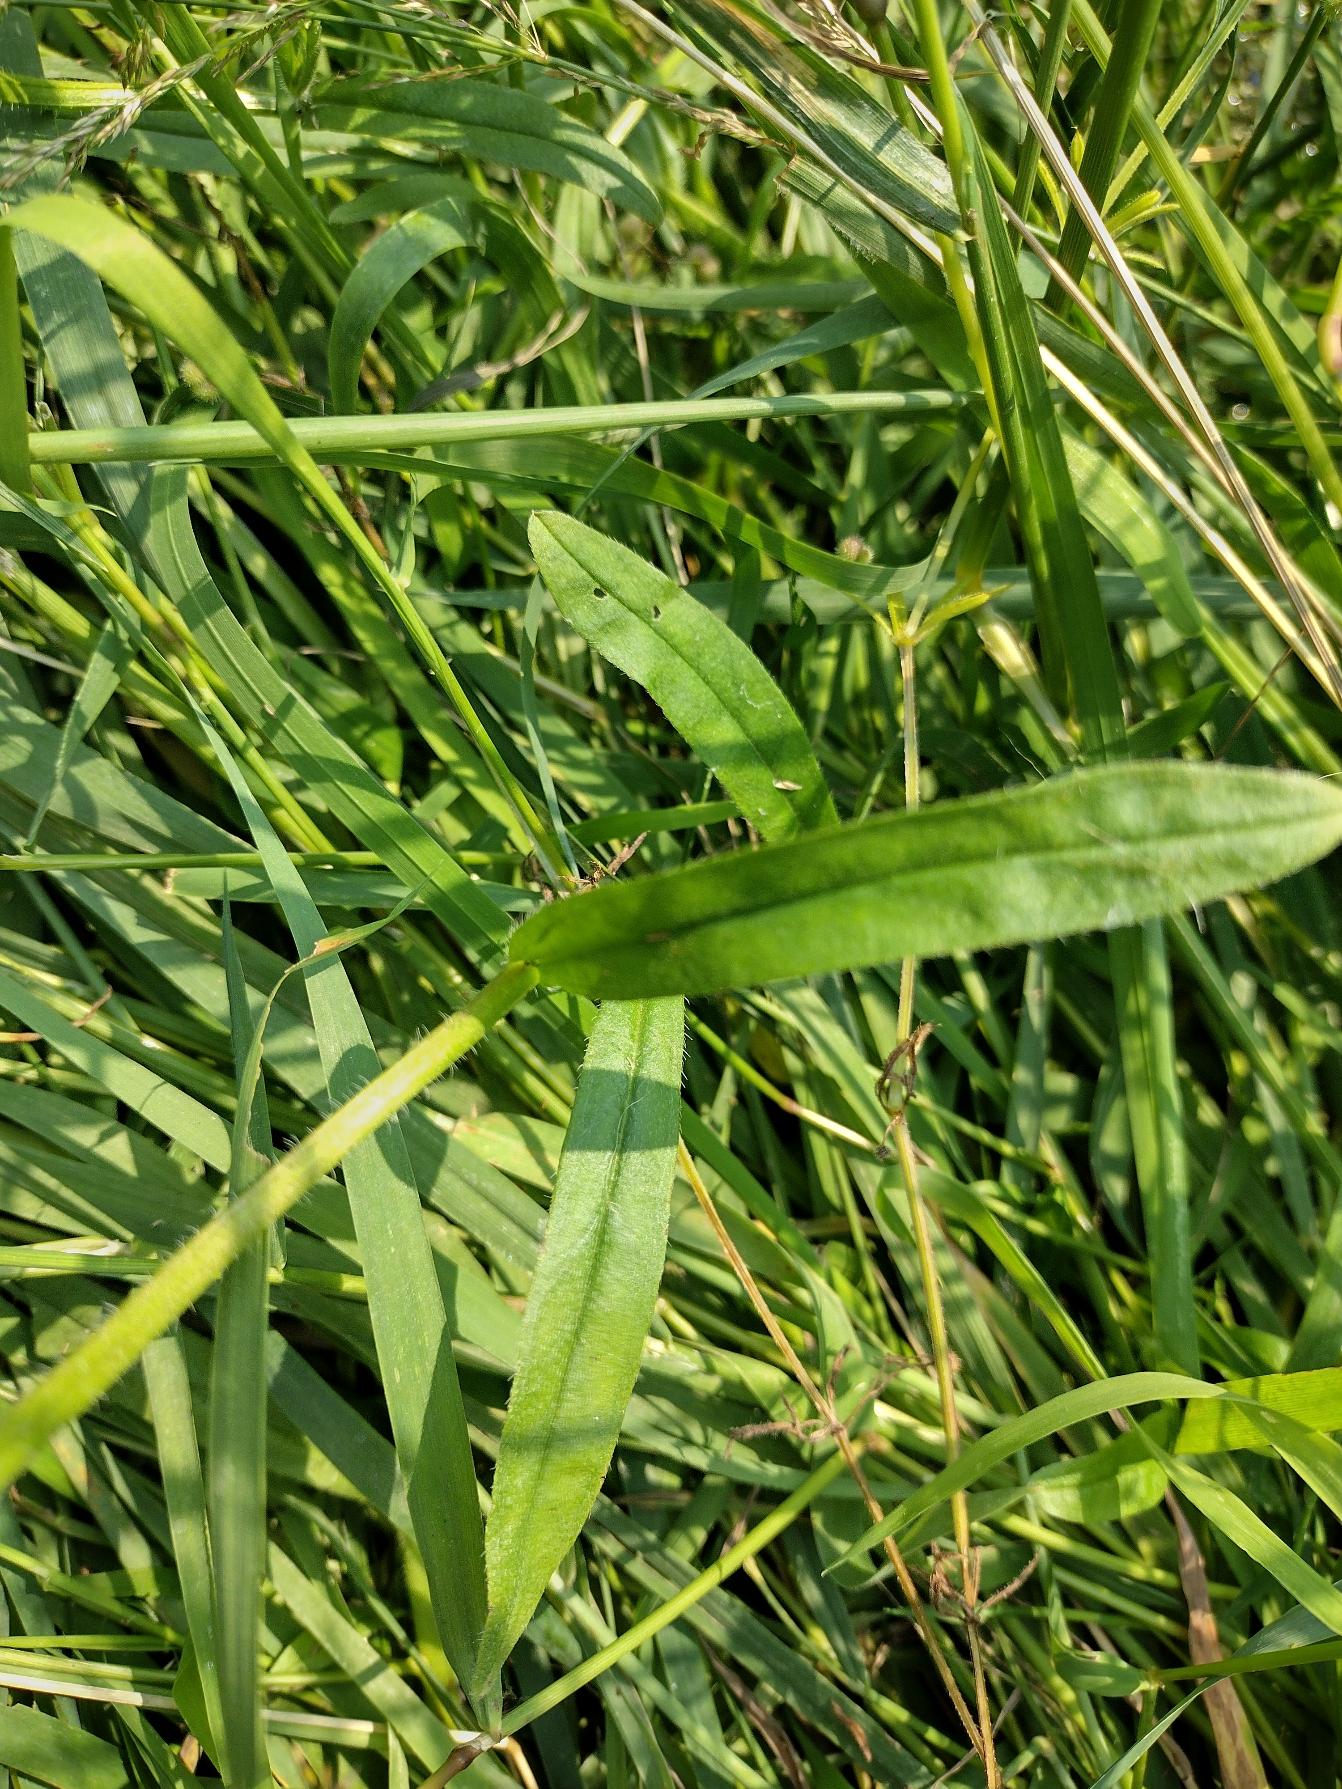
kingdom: Plantae
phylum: Tracheophyta
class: Magnoliopsida
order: Boraginales
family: Boraginaceae
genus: Myosotis
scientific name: Myosotis scorpioides
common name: Eng-forglemmigej
